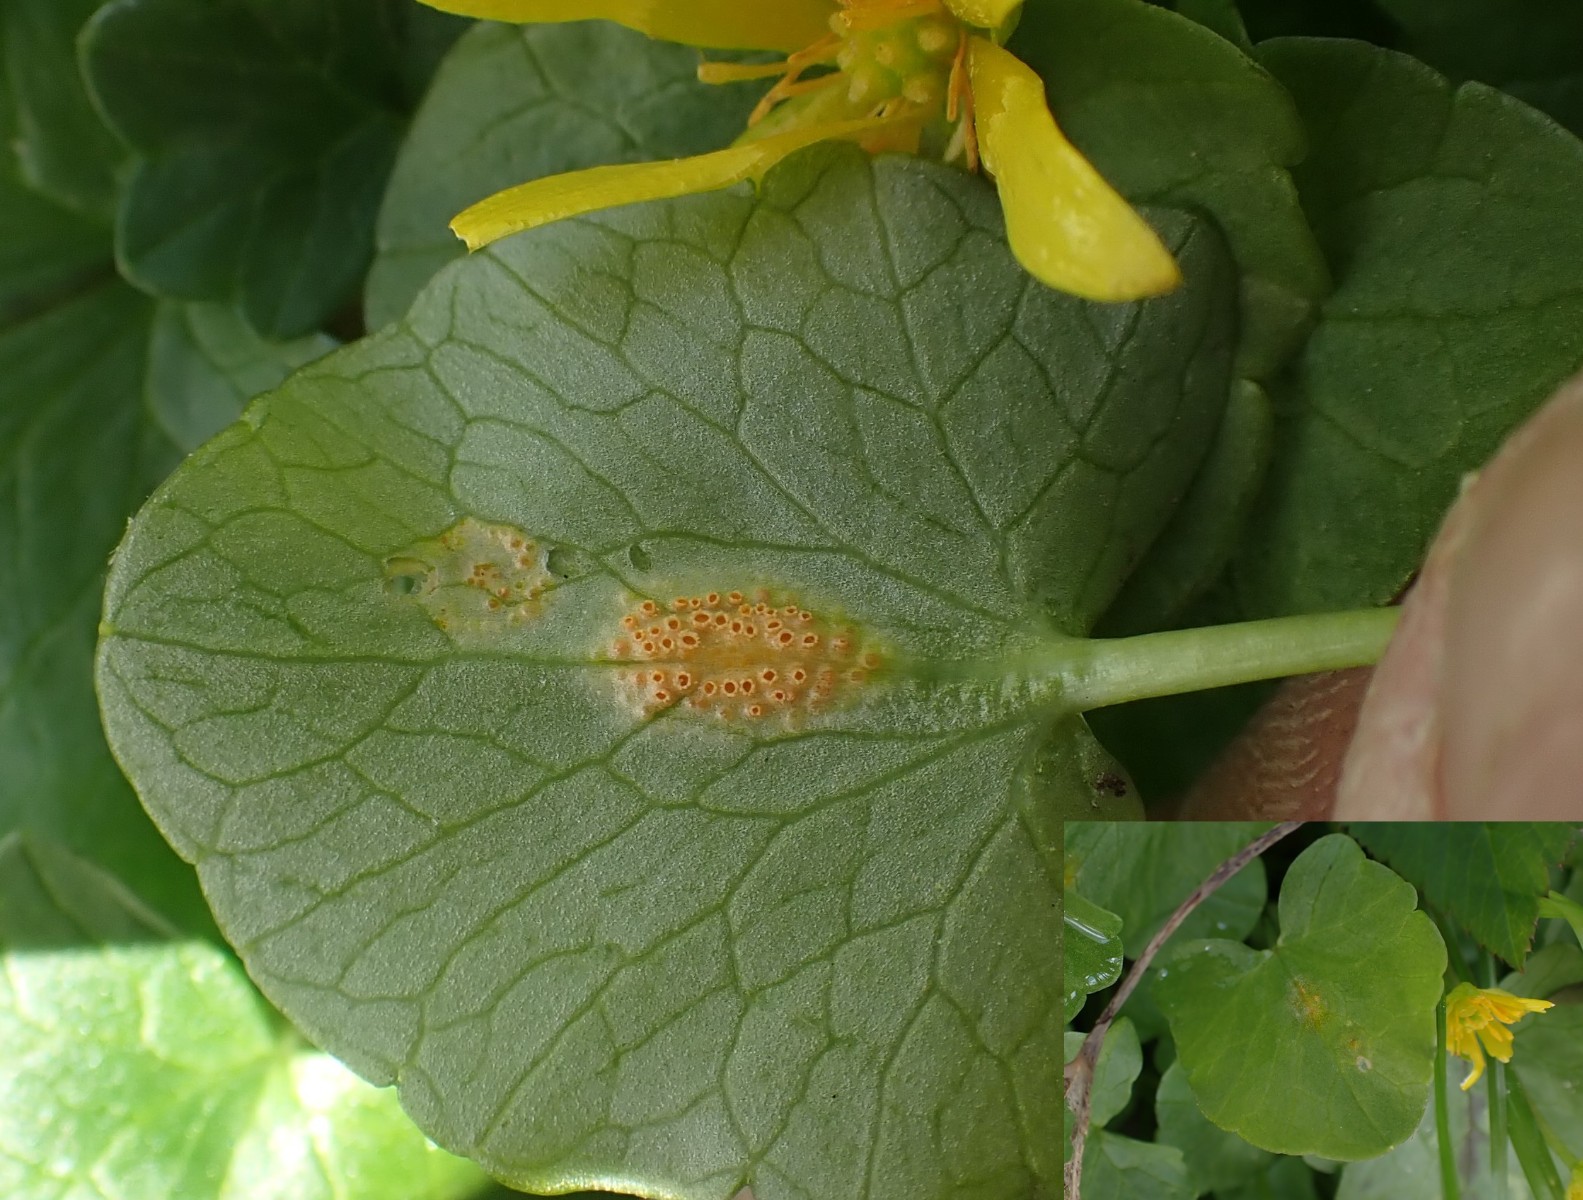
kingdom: Fungi
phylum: Basidiomycota
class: Pucciniomycetes
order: Pucciniales
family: Pucciniaceae
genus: Uromyces
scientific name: Uromyces dactylidis
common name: ranunkel-encellerust
